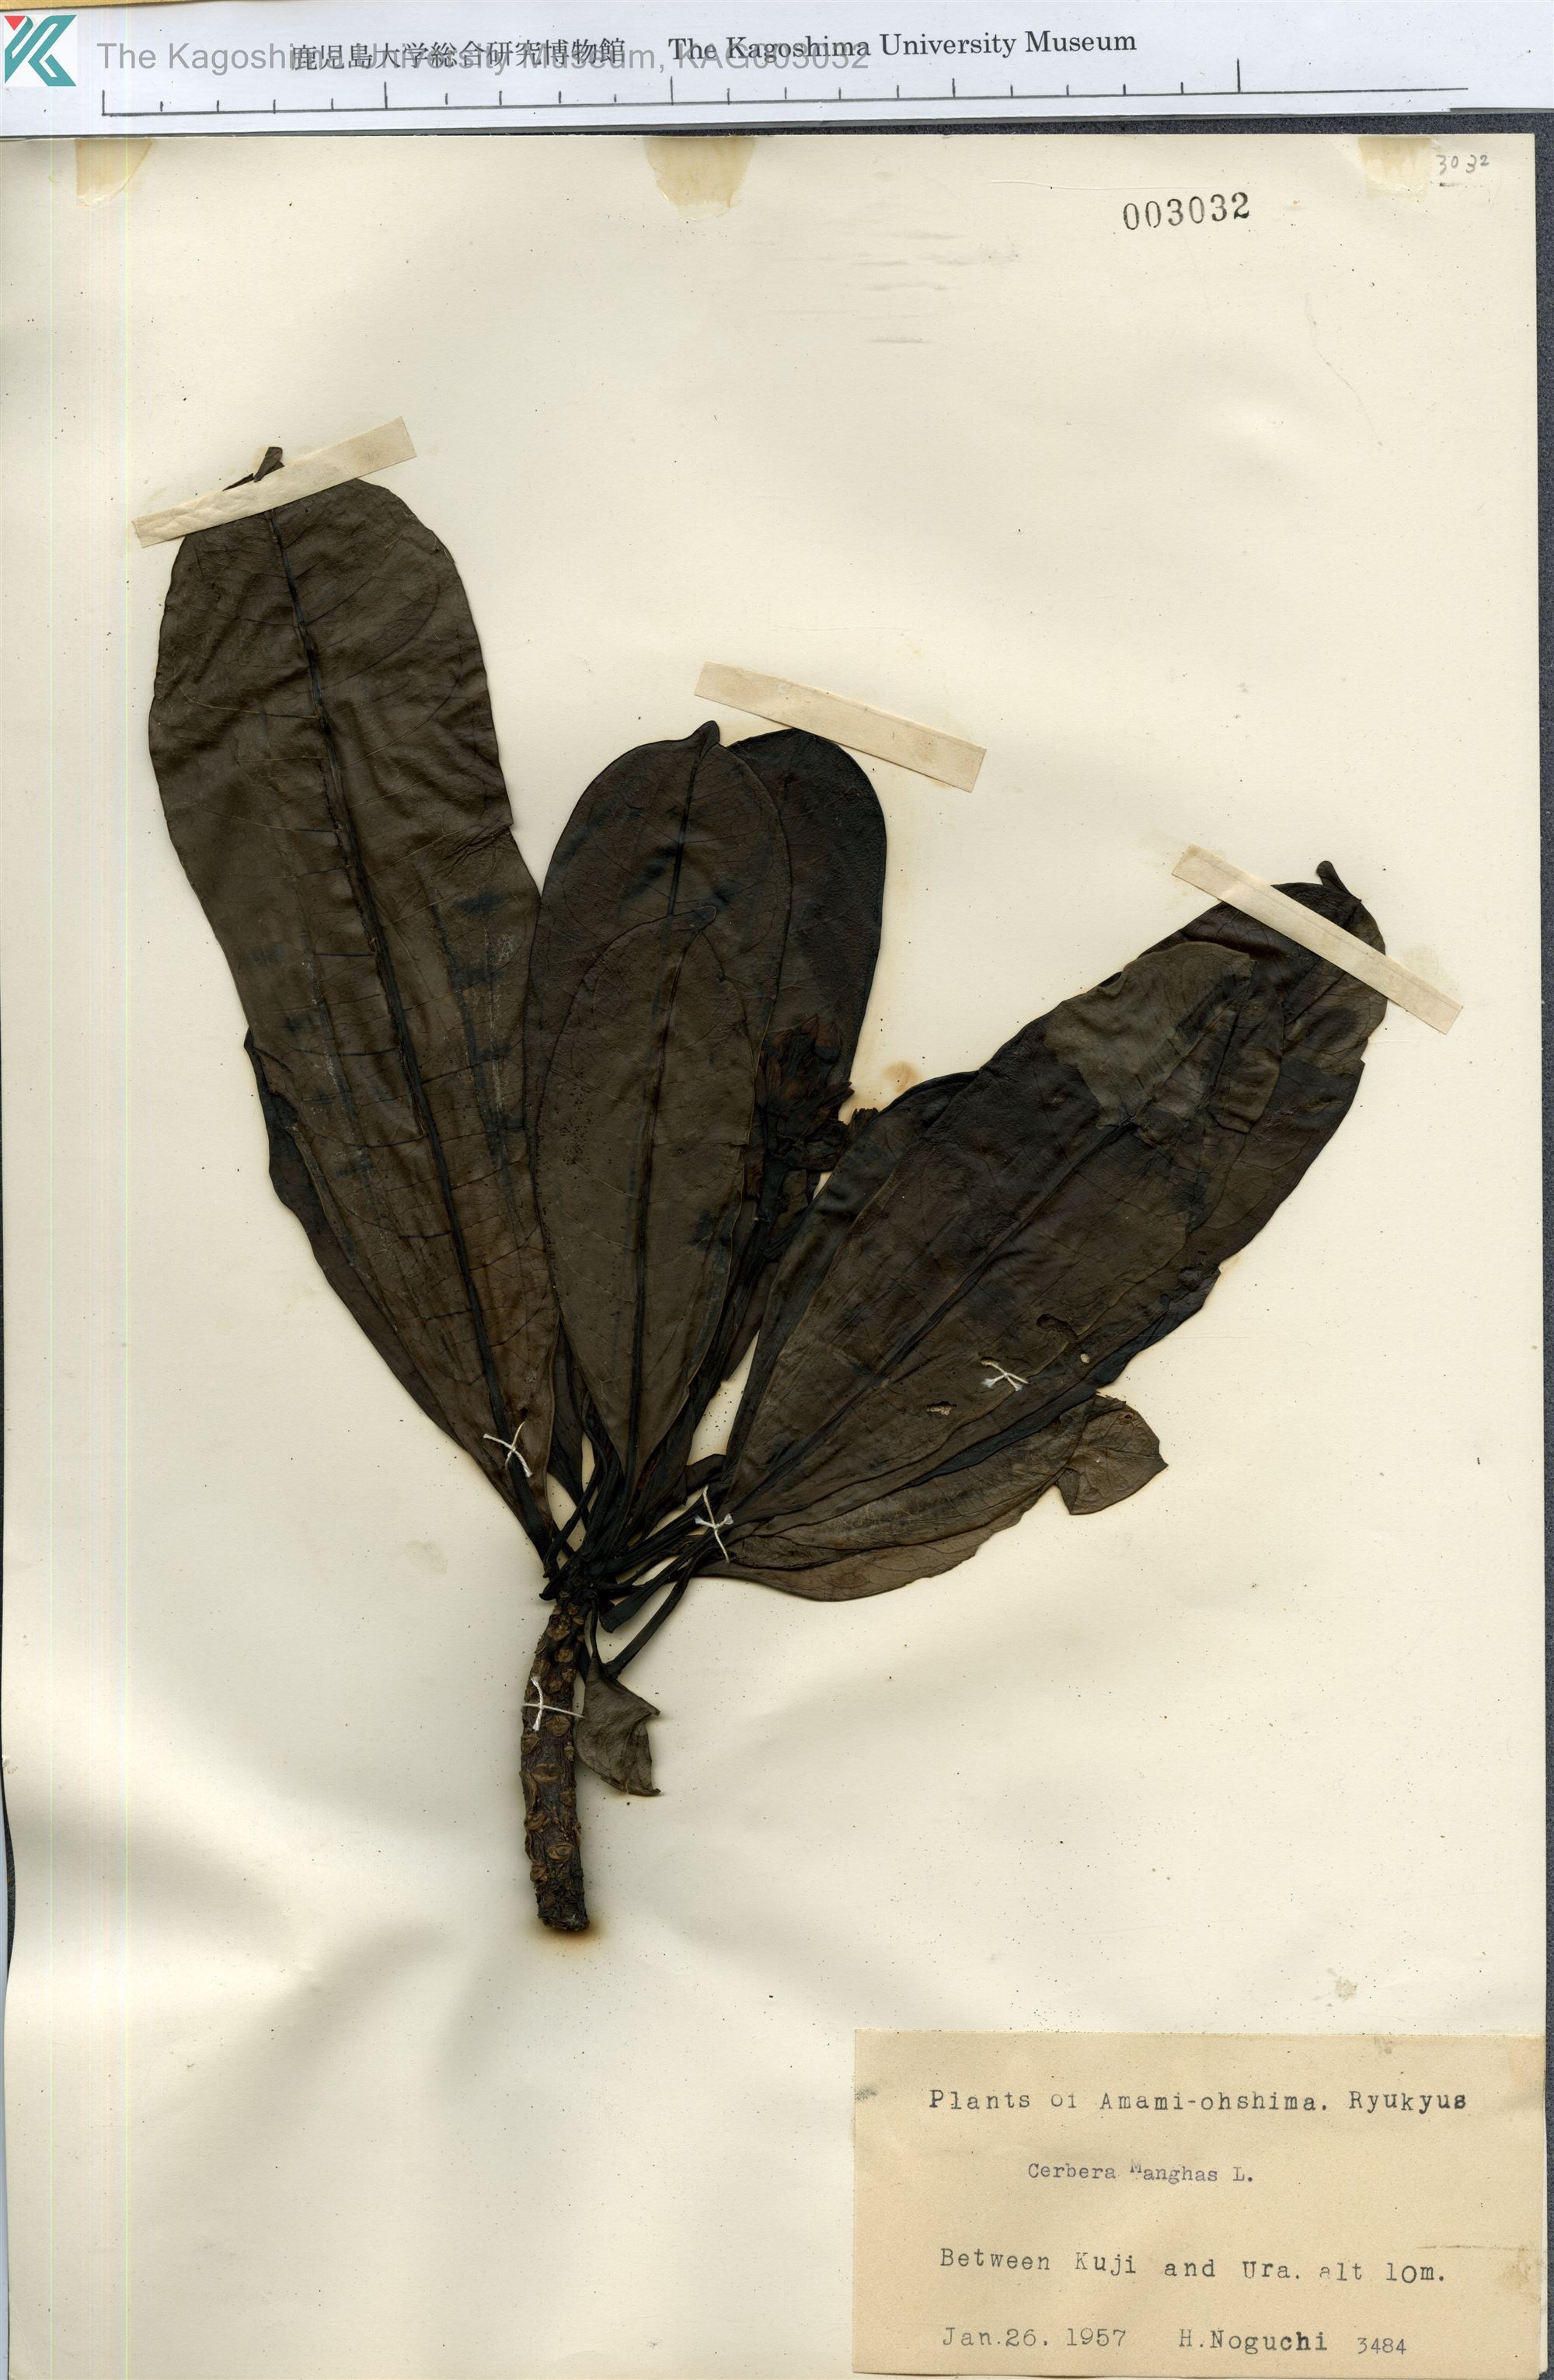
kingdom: Plantae
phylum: Tracheophyta
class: Magnoliopsida
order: Gentianales
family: Apocynaceae
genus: Cerbera
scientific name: Cerbera manghas
